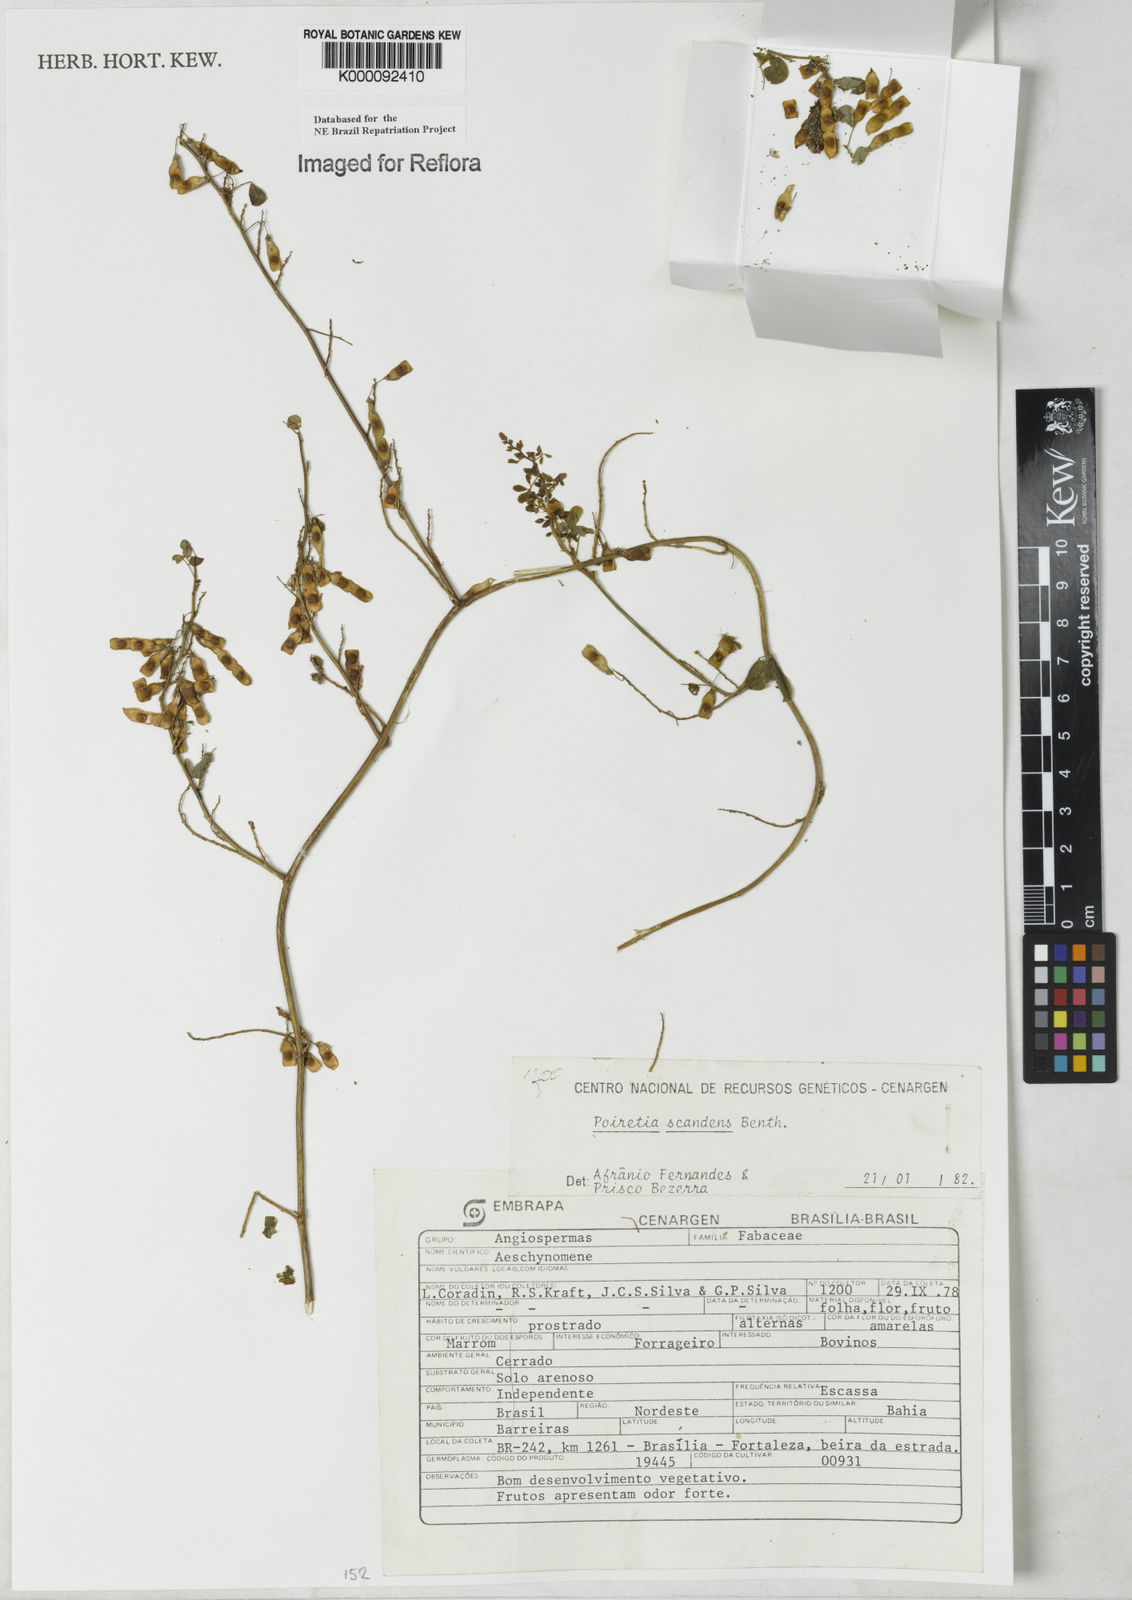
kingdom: Plantae
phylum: Tracheophyta
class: Magnoliopsida
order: Fabales
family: Fabaceae
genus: Poiretia
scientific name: Poiretia punctata
